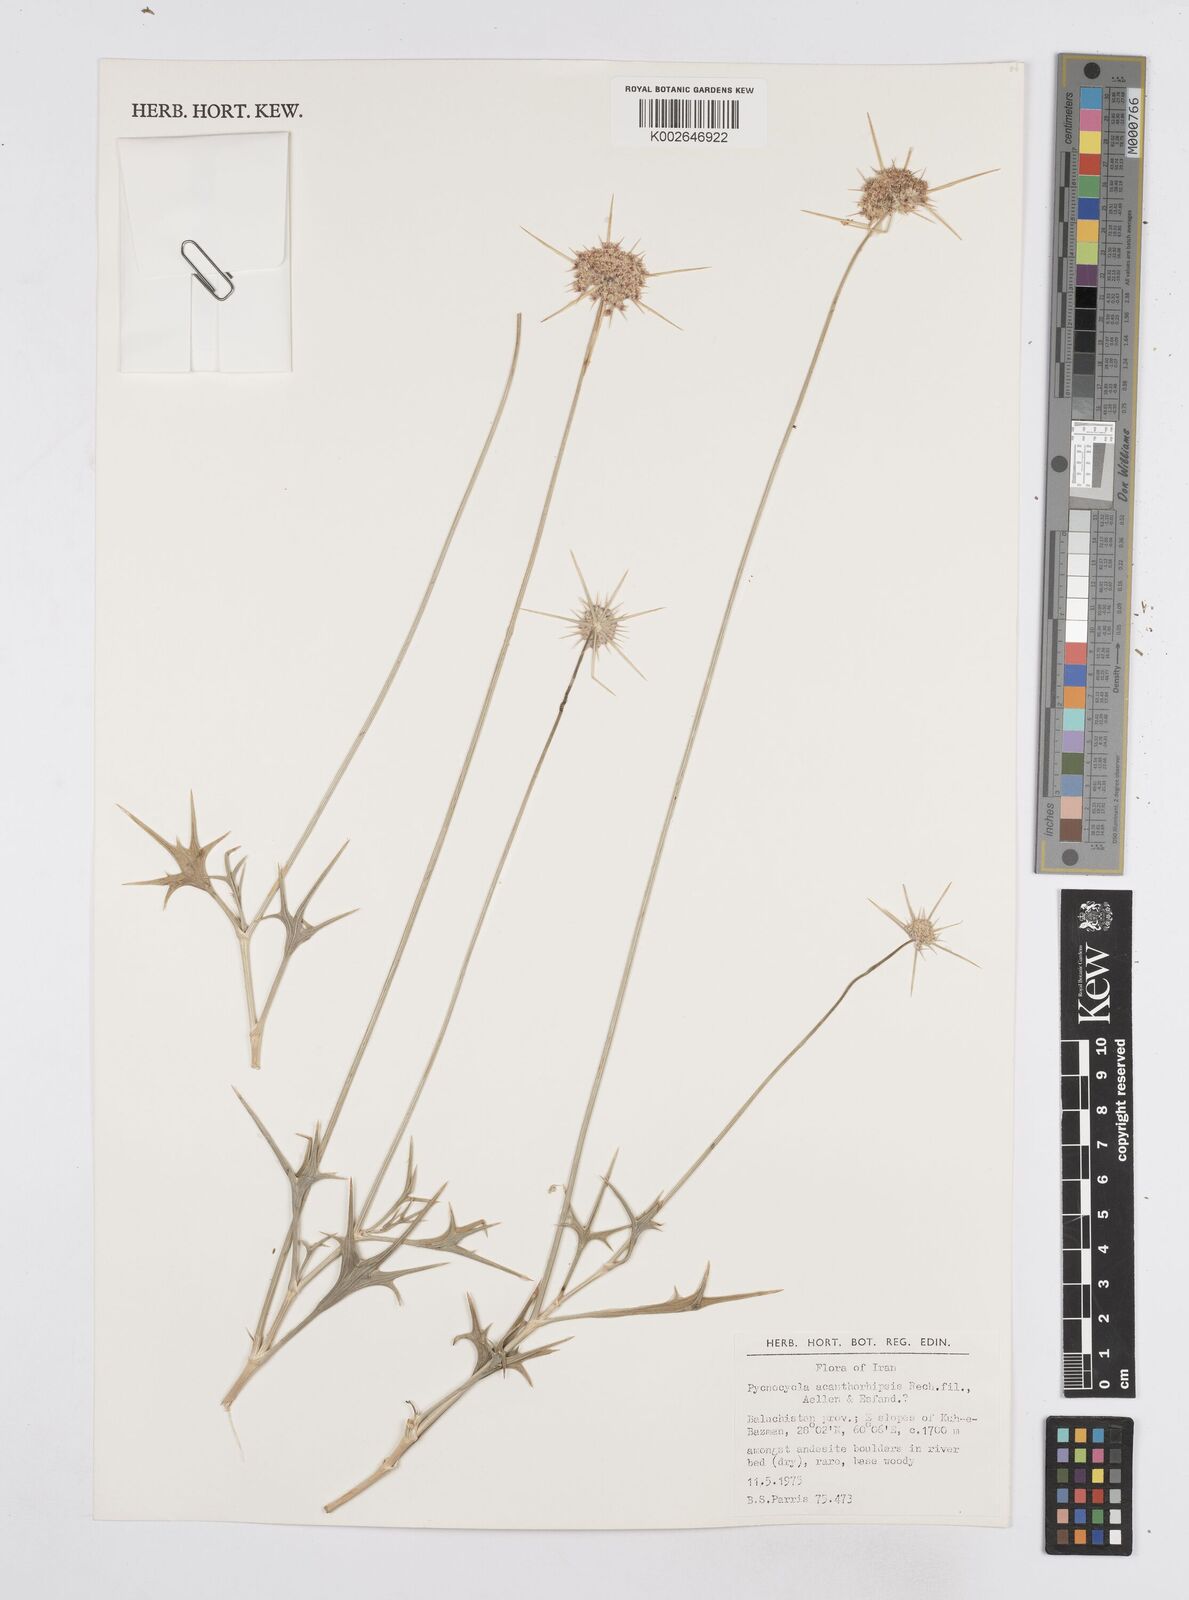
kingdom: Plantae
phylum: Tracheophyta
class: Magnoliopsida
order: Apiales
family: Apiaceae
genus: Pycnocycla
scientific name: Pycnocycla
